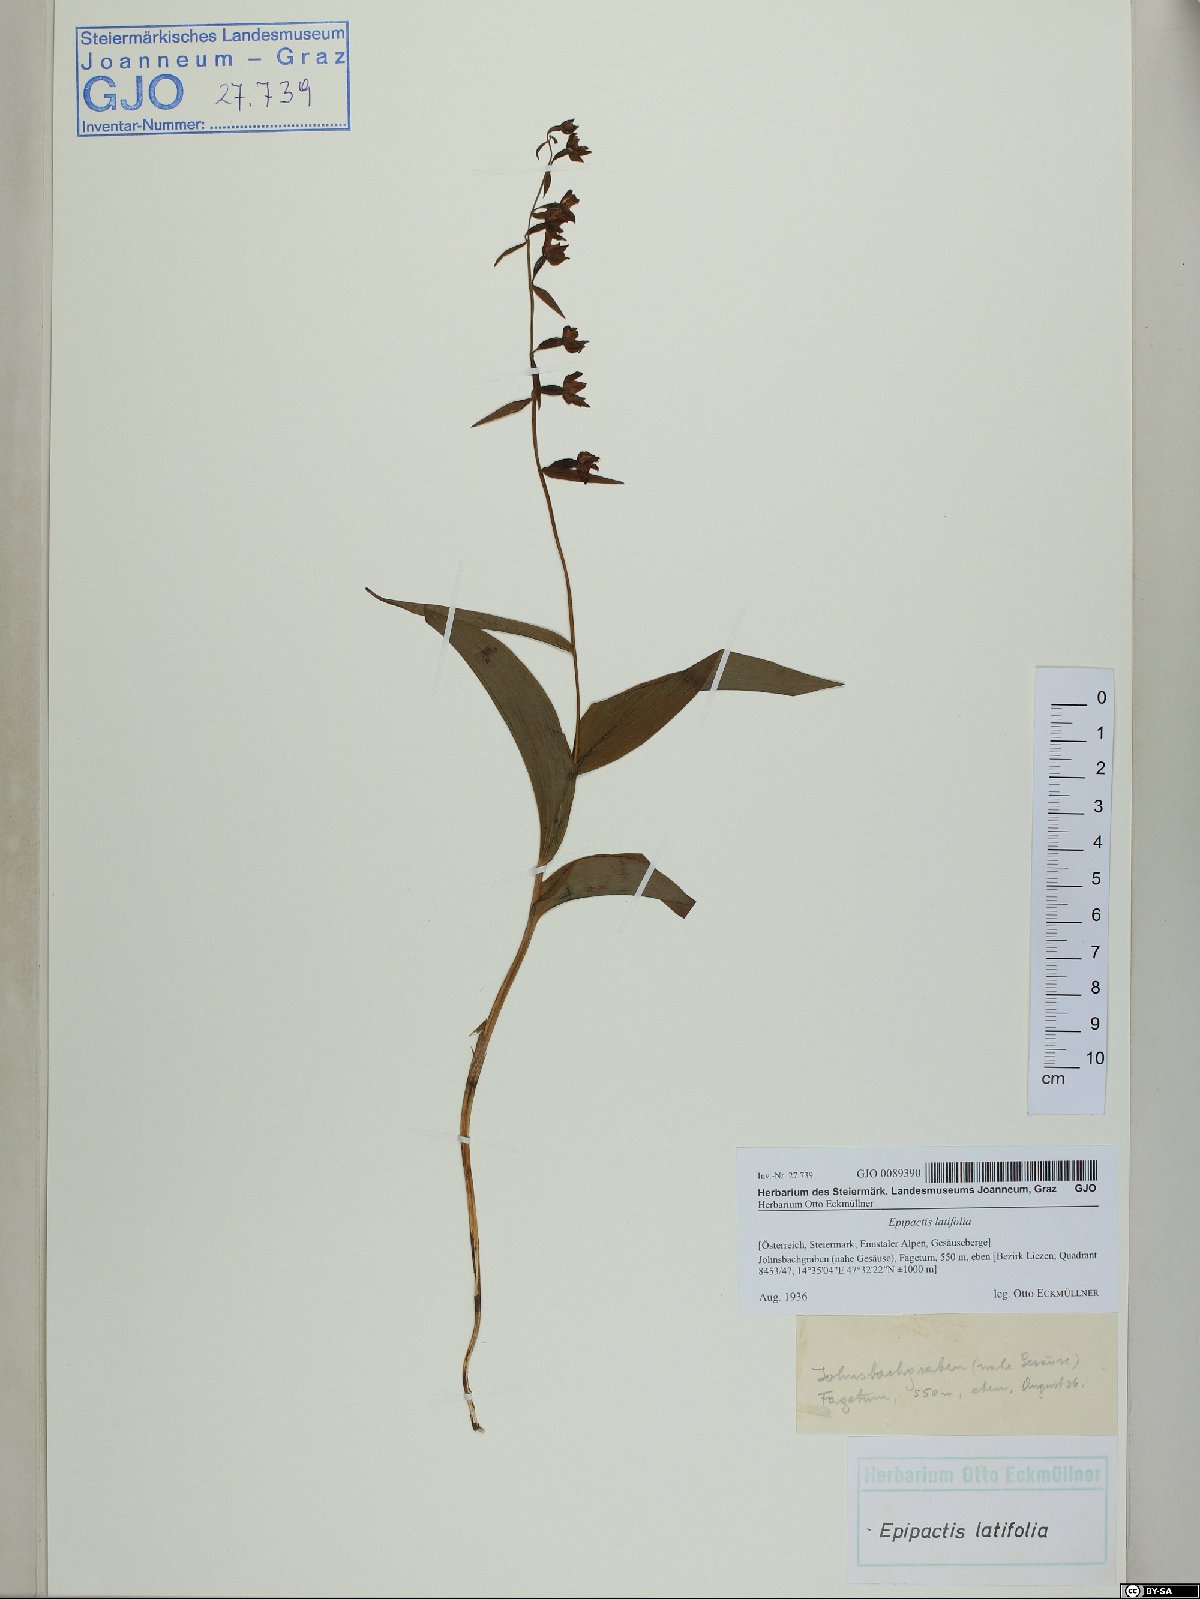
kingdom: Plantae
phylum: Tracheophyta
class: Liliopsida
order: Asparagales
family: Orchidaceae
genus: Epipactis
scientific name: Epipactis helleborine
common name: Broad-leaved helleborine
